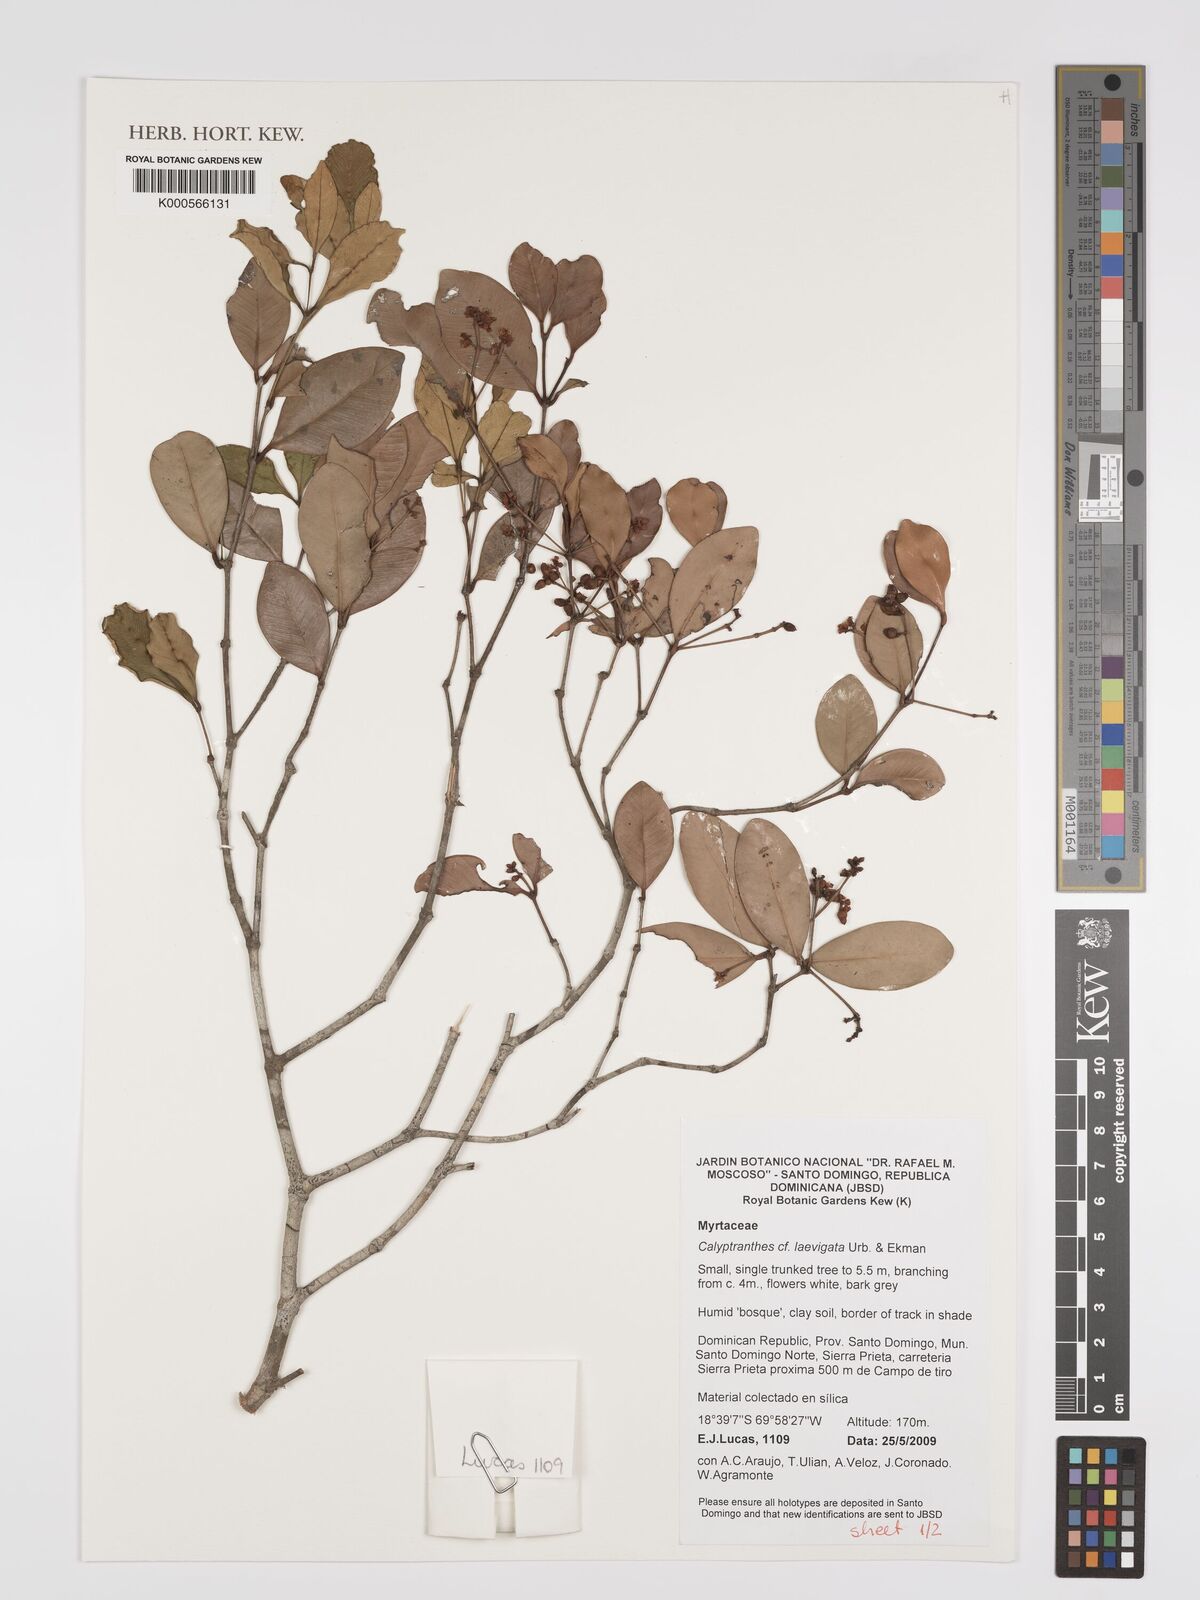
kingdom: Plantae
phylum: Tracheophyta
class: Magnoliopsida
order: Myrtales
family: Myrtaceae
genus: Myrcia
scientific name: Myrcia neolaevigata
